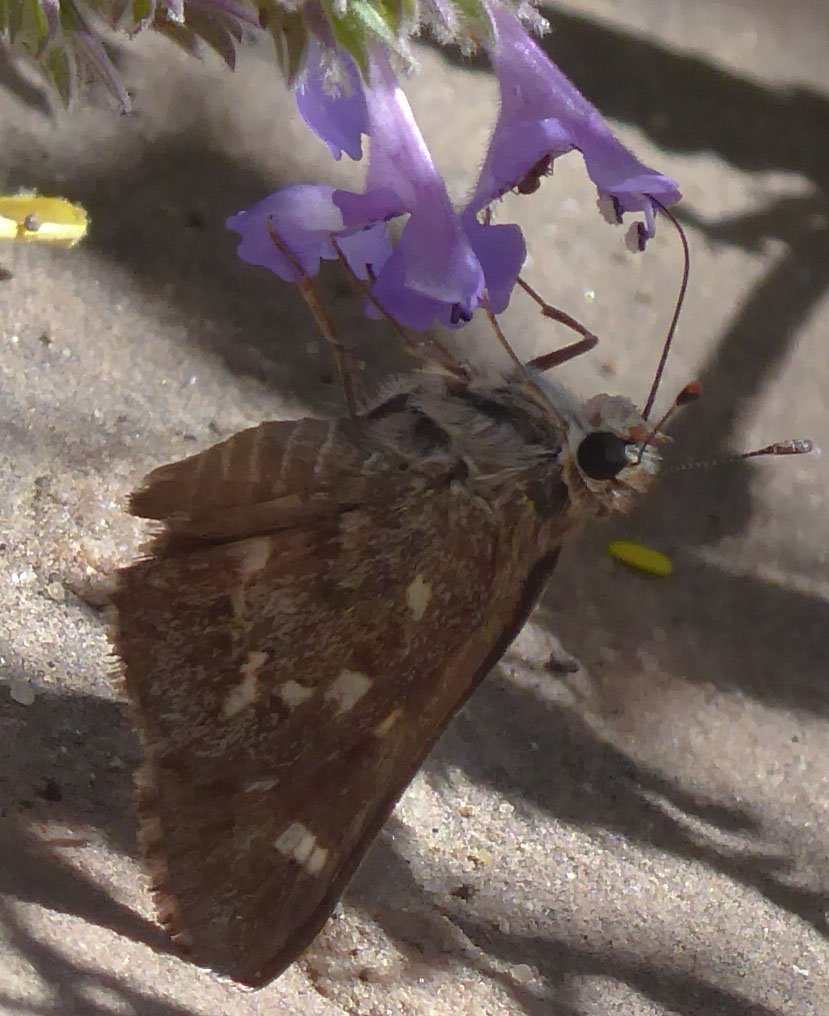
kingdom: Animalia
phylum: Arthropoda
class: Insecta
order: Lepidoptera
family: Hesperiidae
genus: Atrytonopsis
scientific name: Atrytonopsis python
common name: Python Skipper
